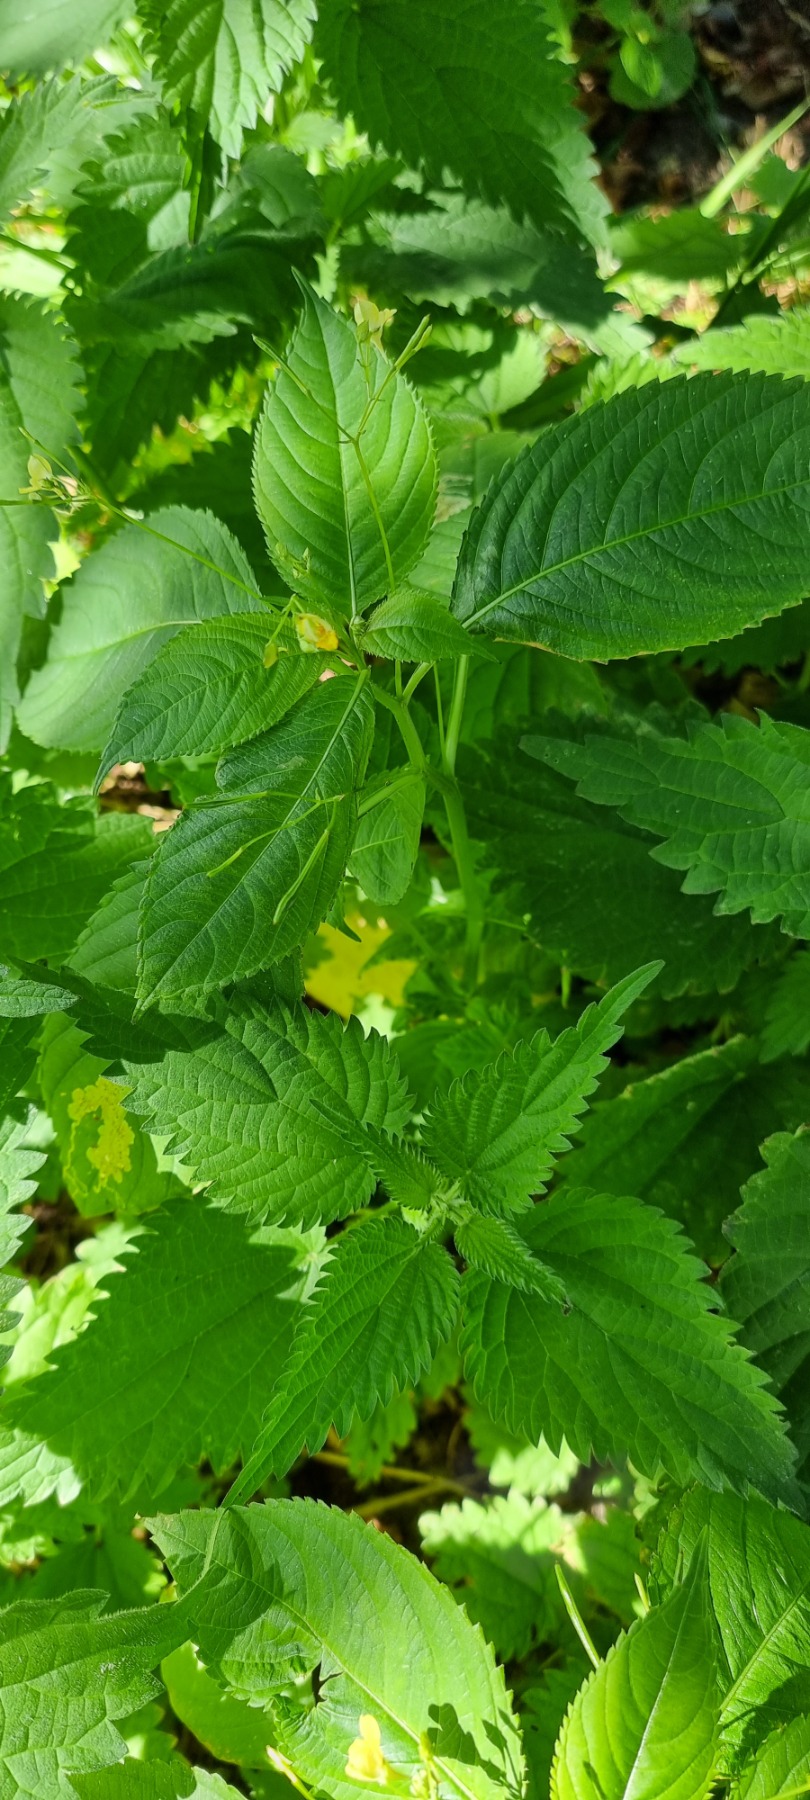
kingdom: Plantae
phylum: Tracheophyta
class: Magnoliopsida
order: Ericales
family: Balsaminaceae
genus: Impatiens
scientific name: Impatiens parviflora
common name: Småblomstret balsamin
